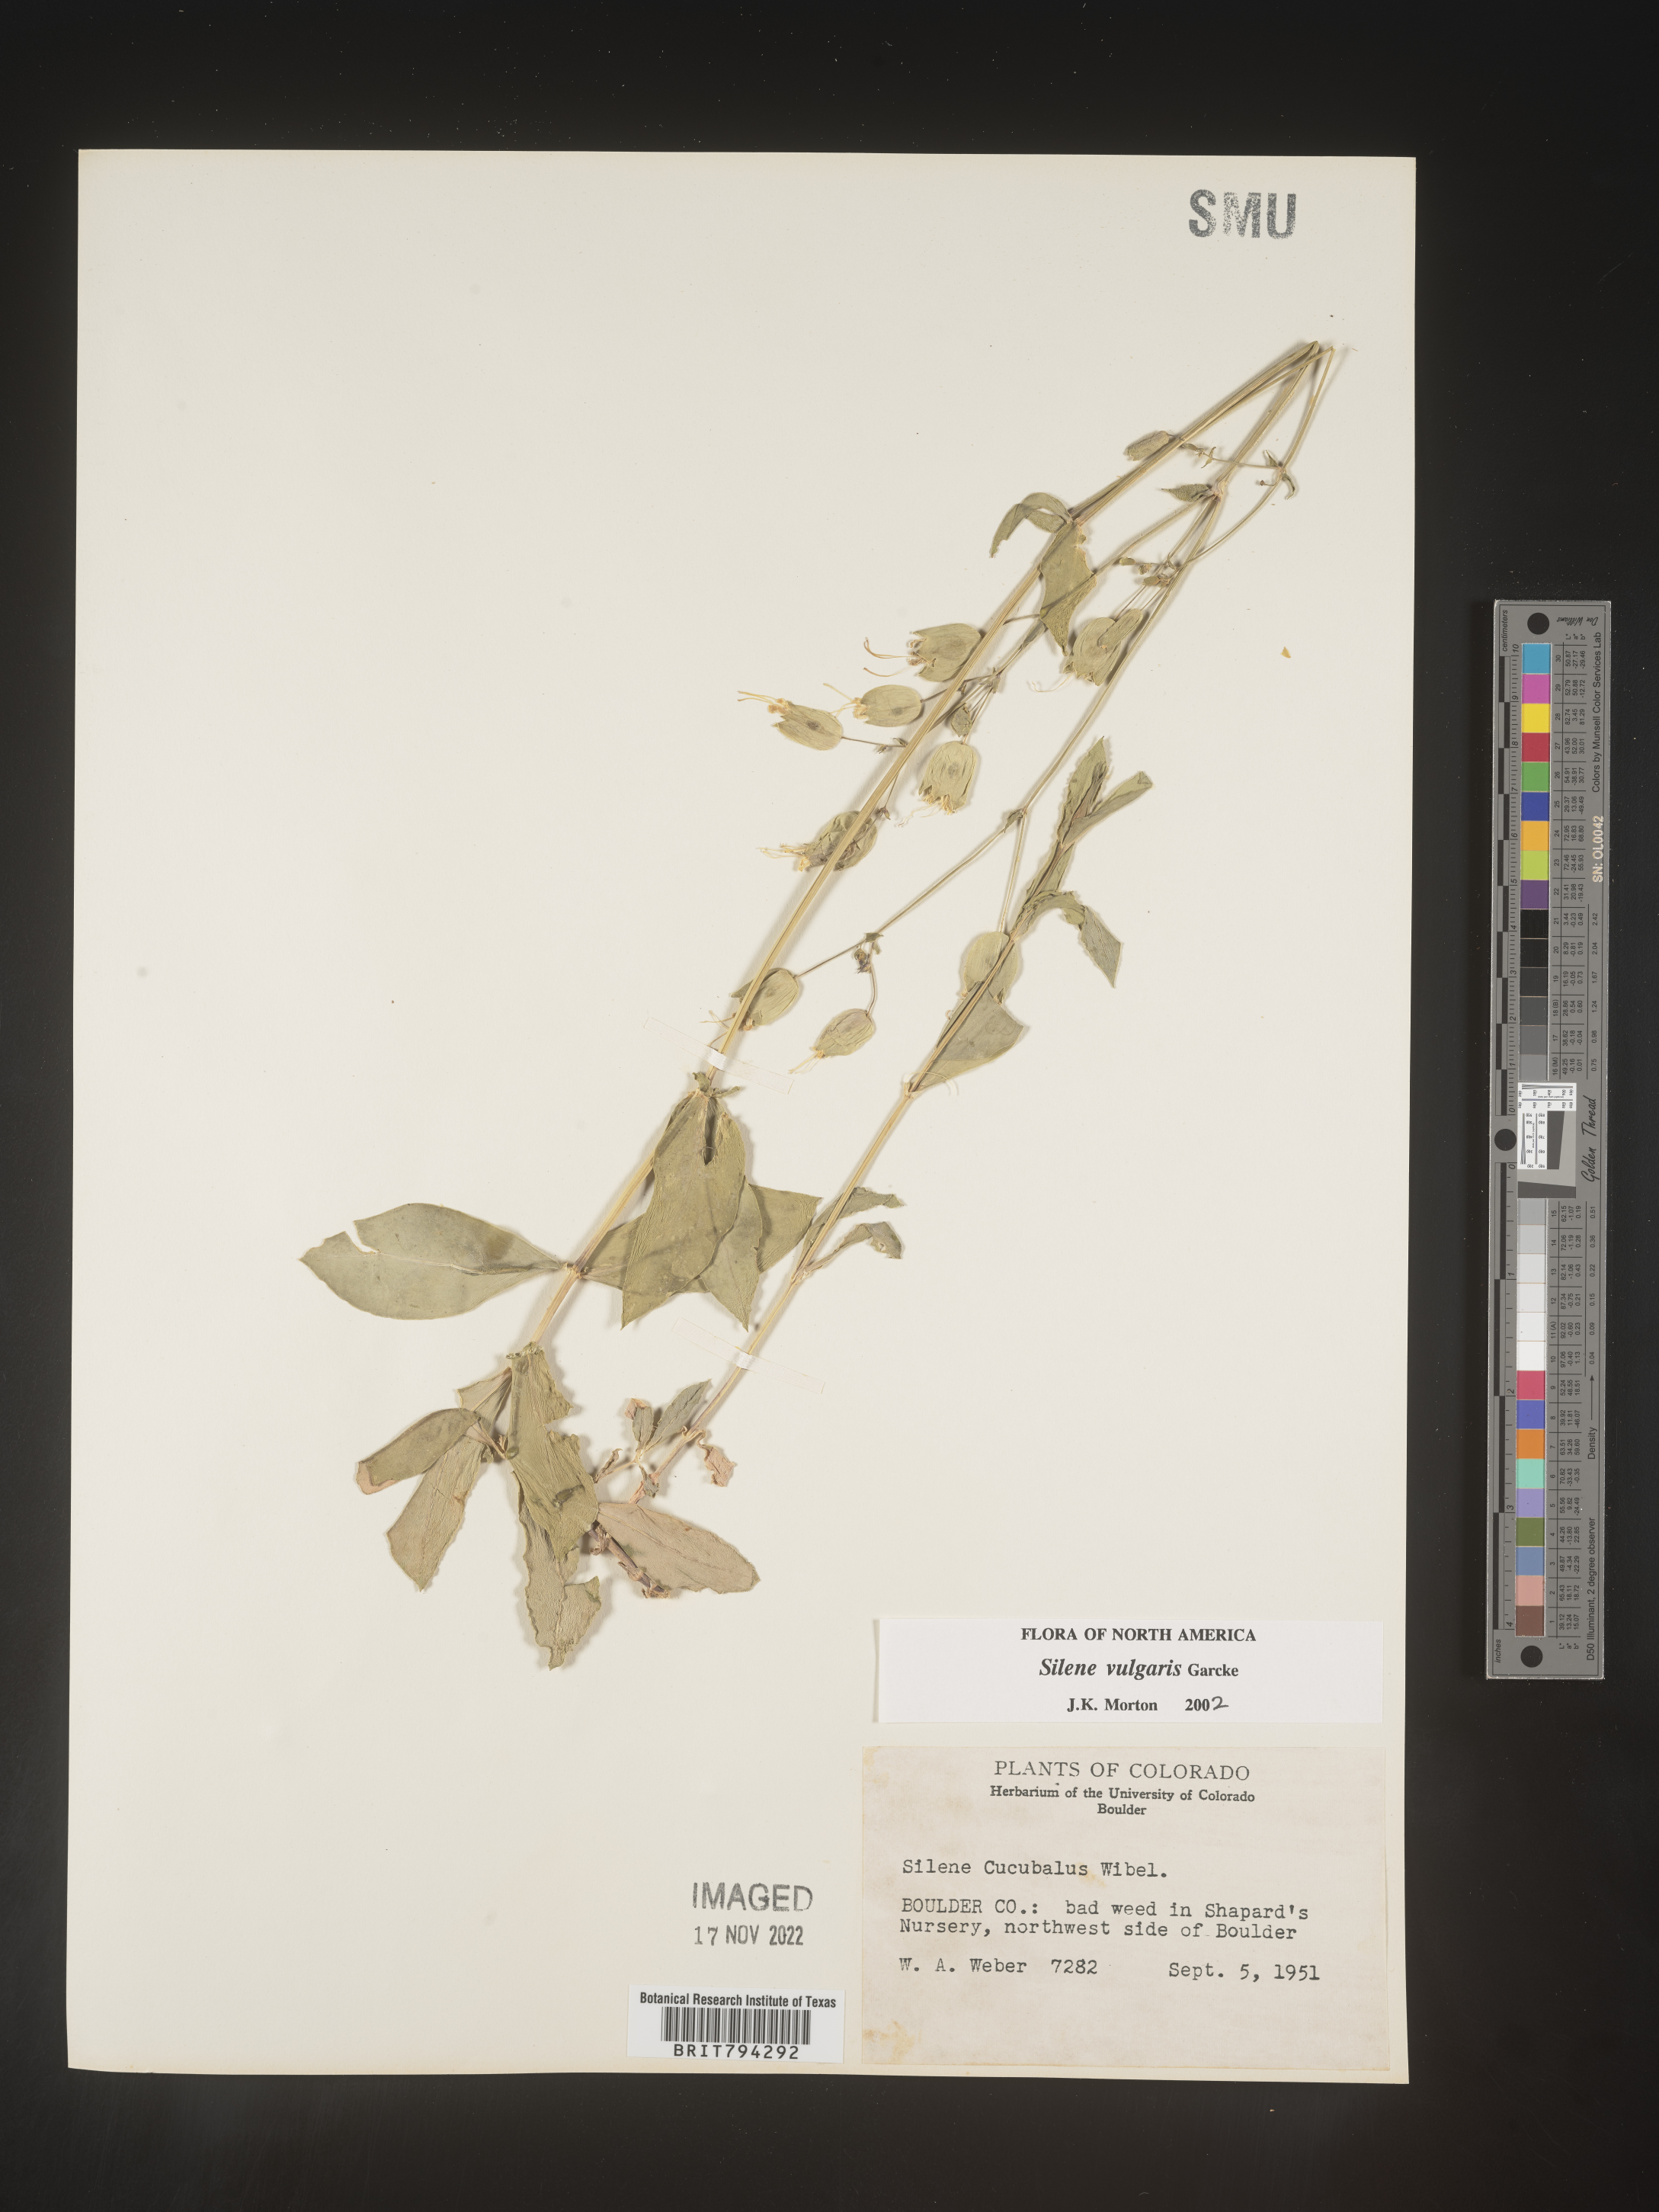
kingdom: Plantae
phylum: Tracheophyta
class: Magnoliopsida
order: Caryophyllales
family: Caryophyllaceae
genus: Silene
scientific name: Silene vulgaris
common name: Bladder campion
